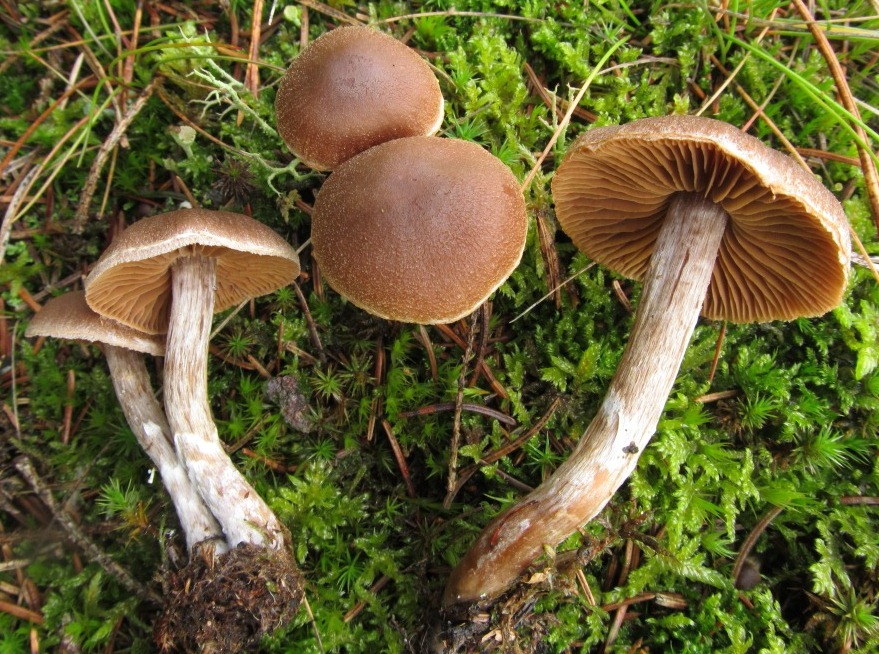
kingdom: Fungi
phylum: Basidiomycota
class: Agaricomycetes
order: Agaricales
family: Cortinariaceae
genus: Cortinarius
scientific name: Cortinarius flabellus
